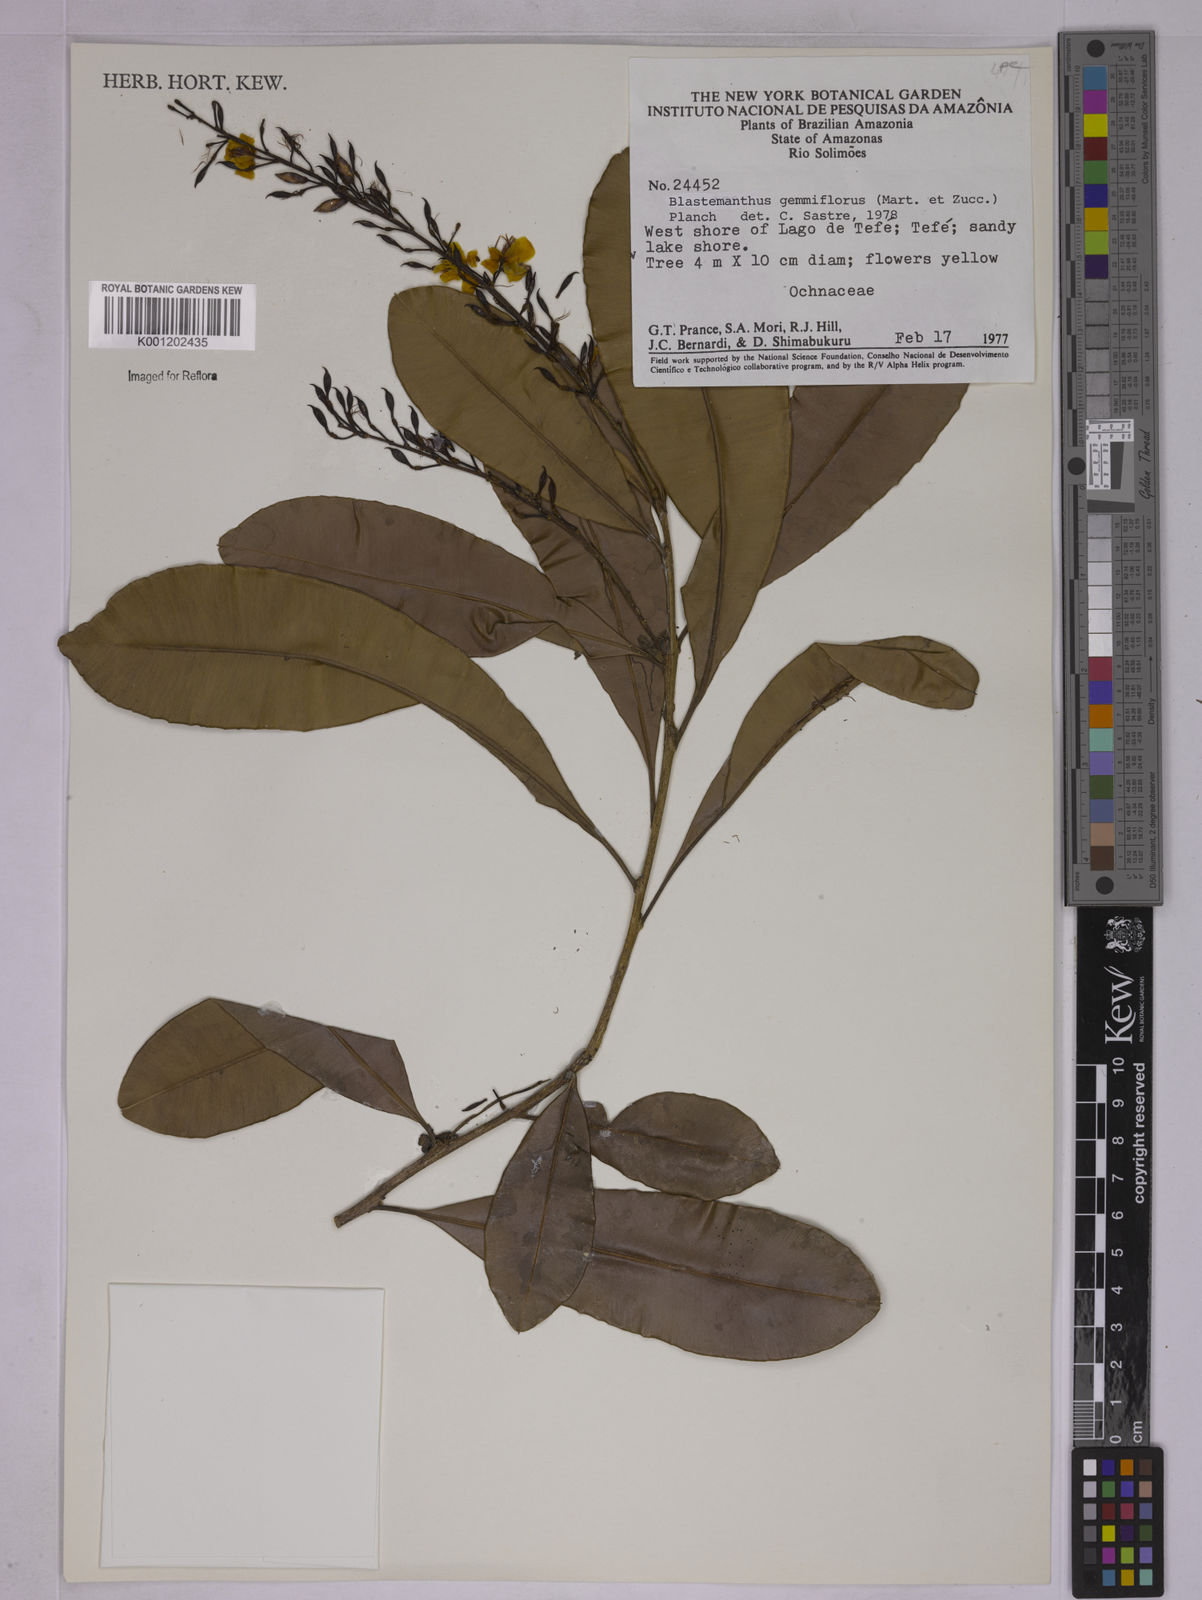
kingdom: Plantae
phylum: Tracheophyta
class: Magnoliopsida
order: Malpighiales
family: Ochnaceae
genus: Blastemanthus
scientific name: Blastemanthus gemmiflorus
